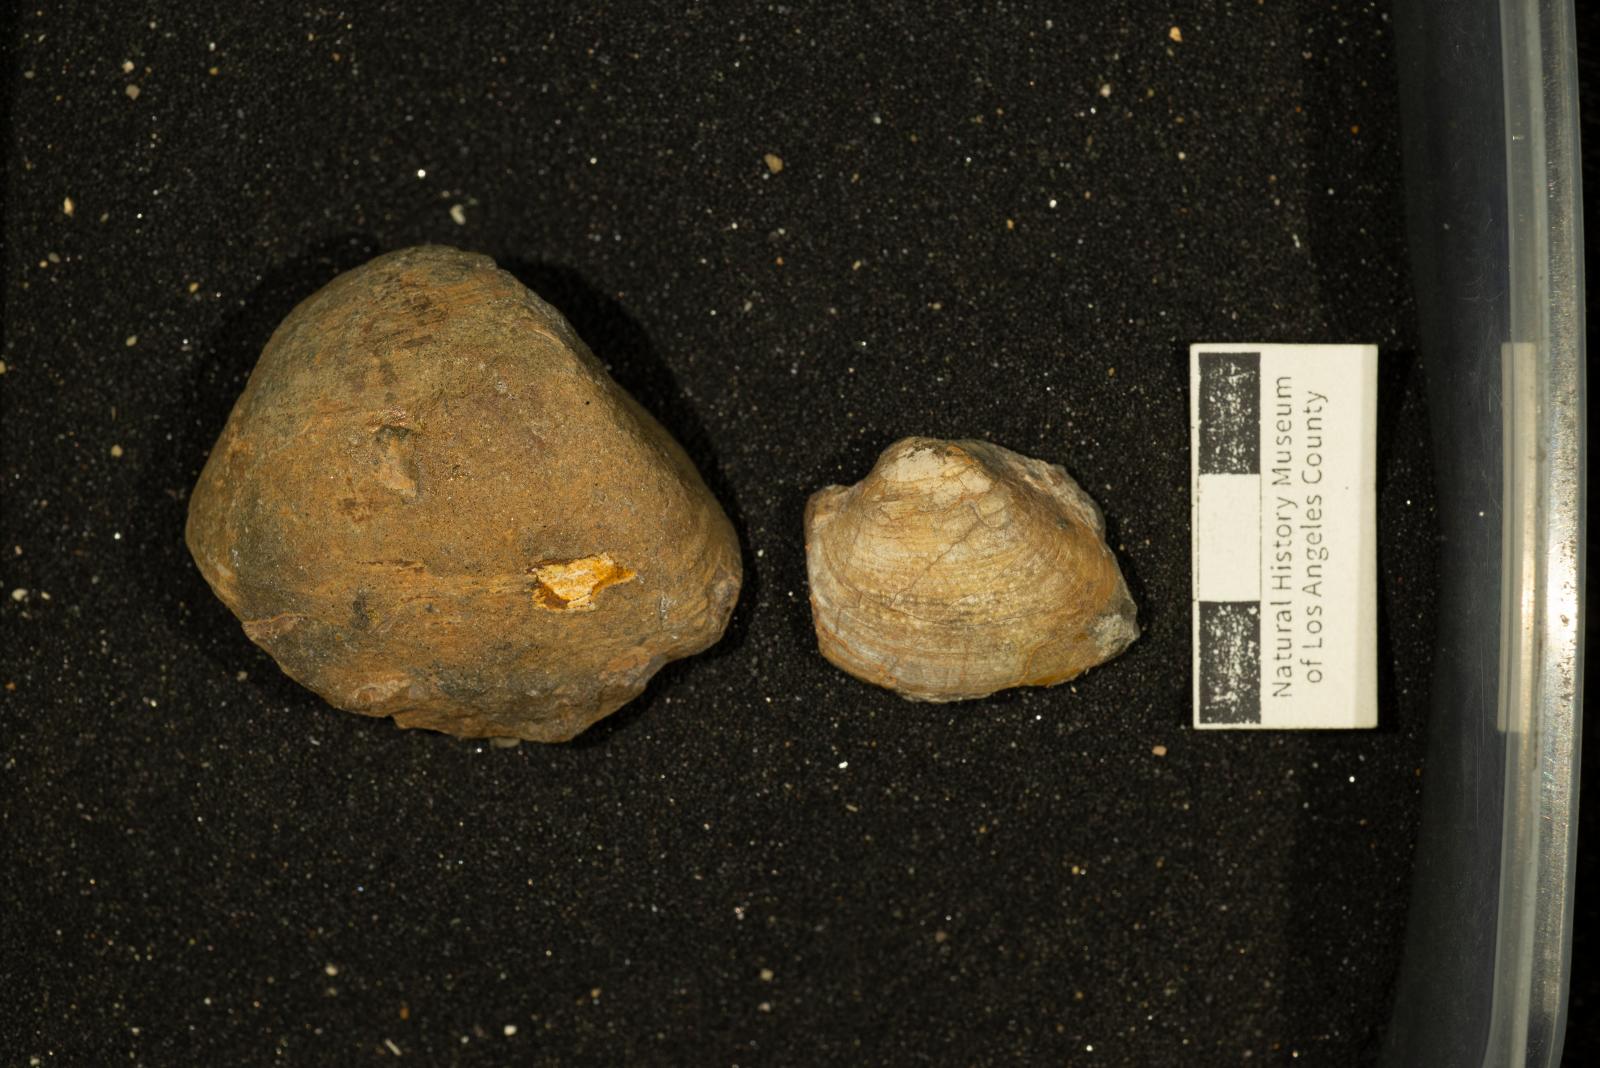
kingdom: Animalia
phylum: Mollusca
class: Bivalvia
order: Arcida
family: Cucullaeidae
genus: Idonearca
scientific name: Idonearca Arca gravida
